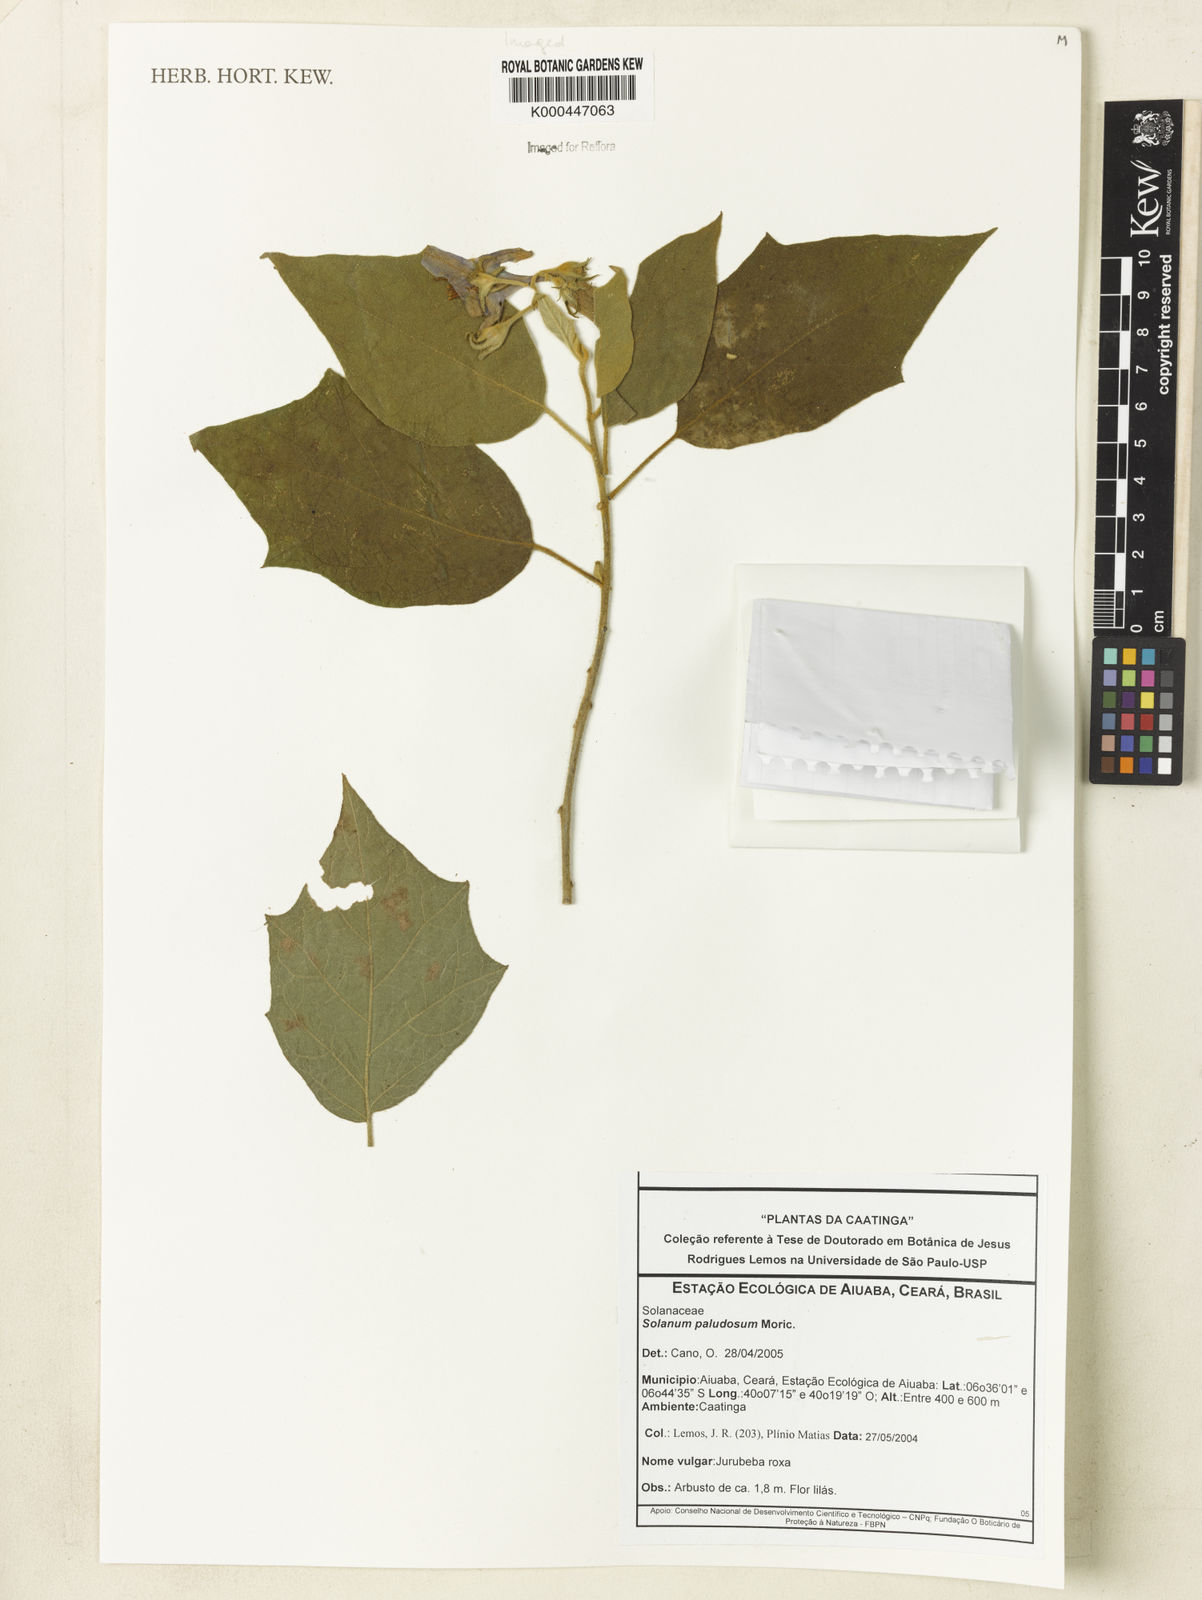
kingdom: Plantae
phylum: Tracheophyta
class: Magnoliopsida
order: Solanales
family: Solanaceae
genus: Solanum
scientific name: Solanum paludosum
